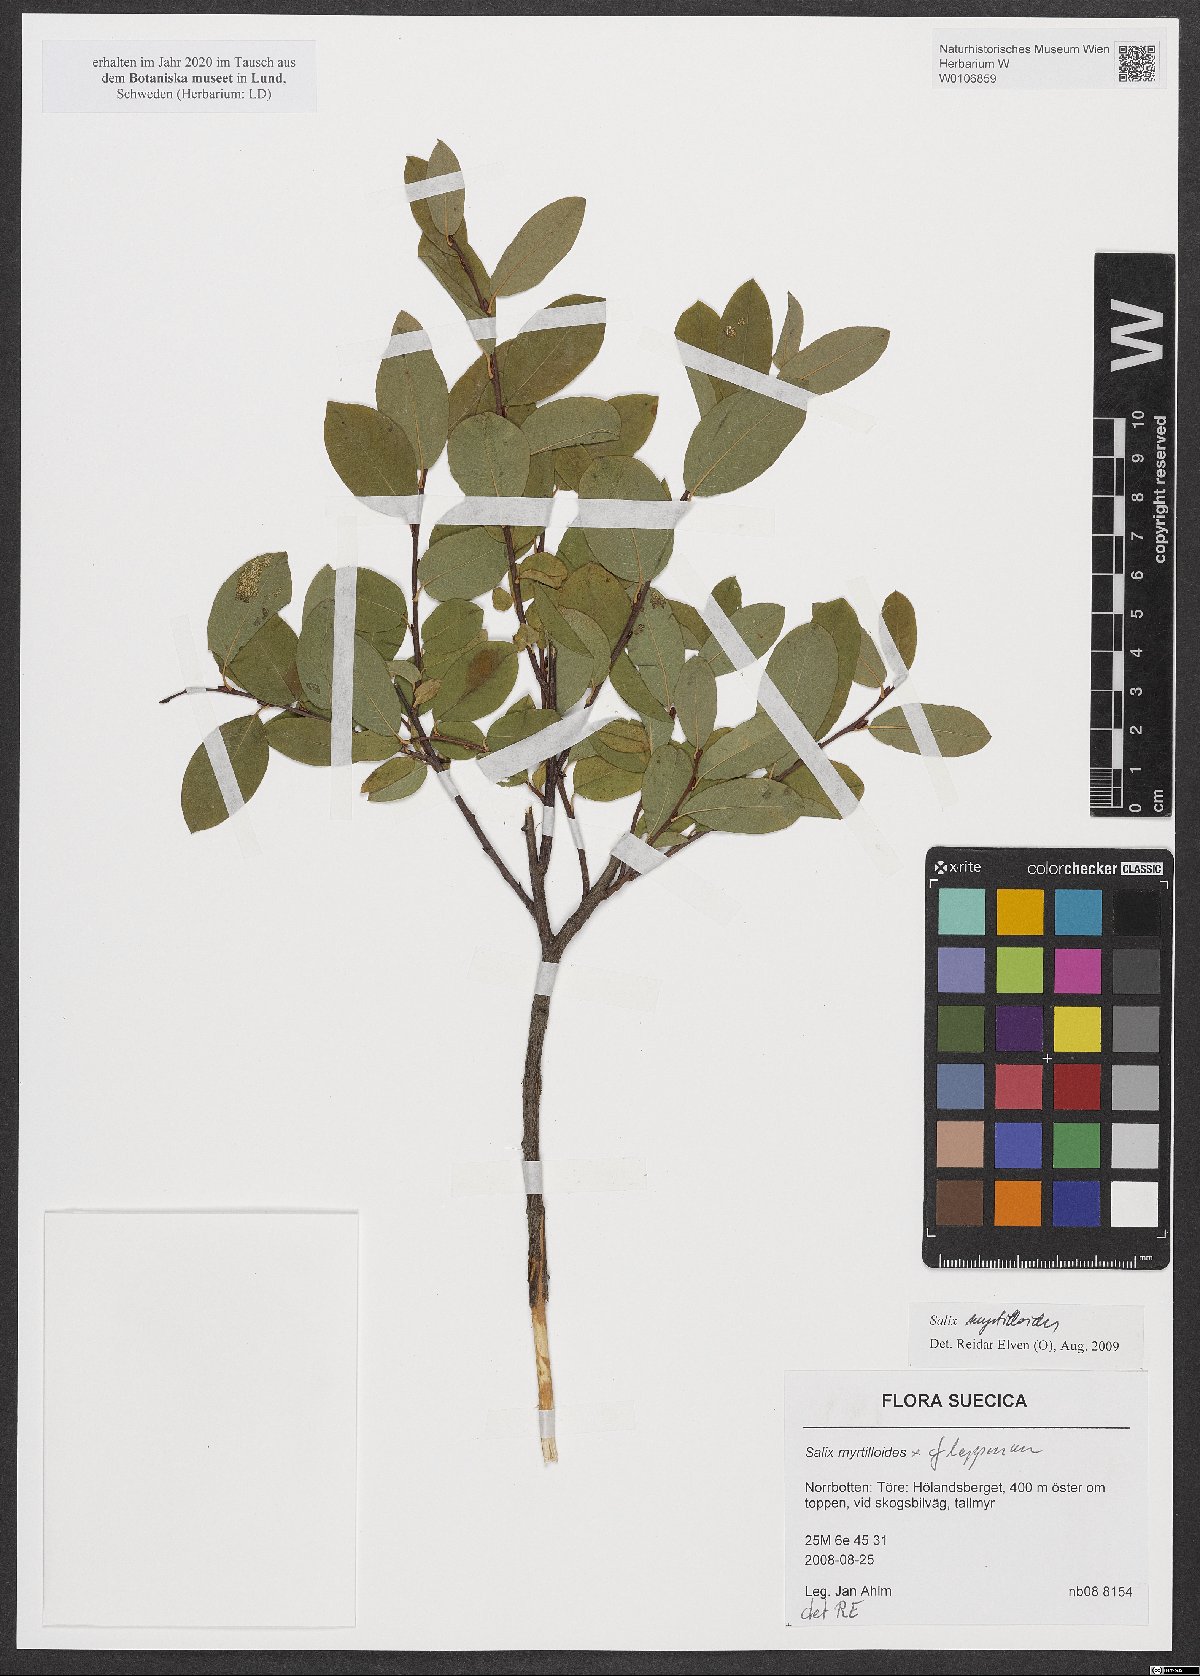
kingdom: Plantae
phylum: Tracheophyta
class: Magnoliopsida
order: Malpighiales
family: Salicaceae
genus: Salix
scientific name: Salix myrtilloides
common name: Myrtle-leaved willow
